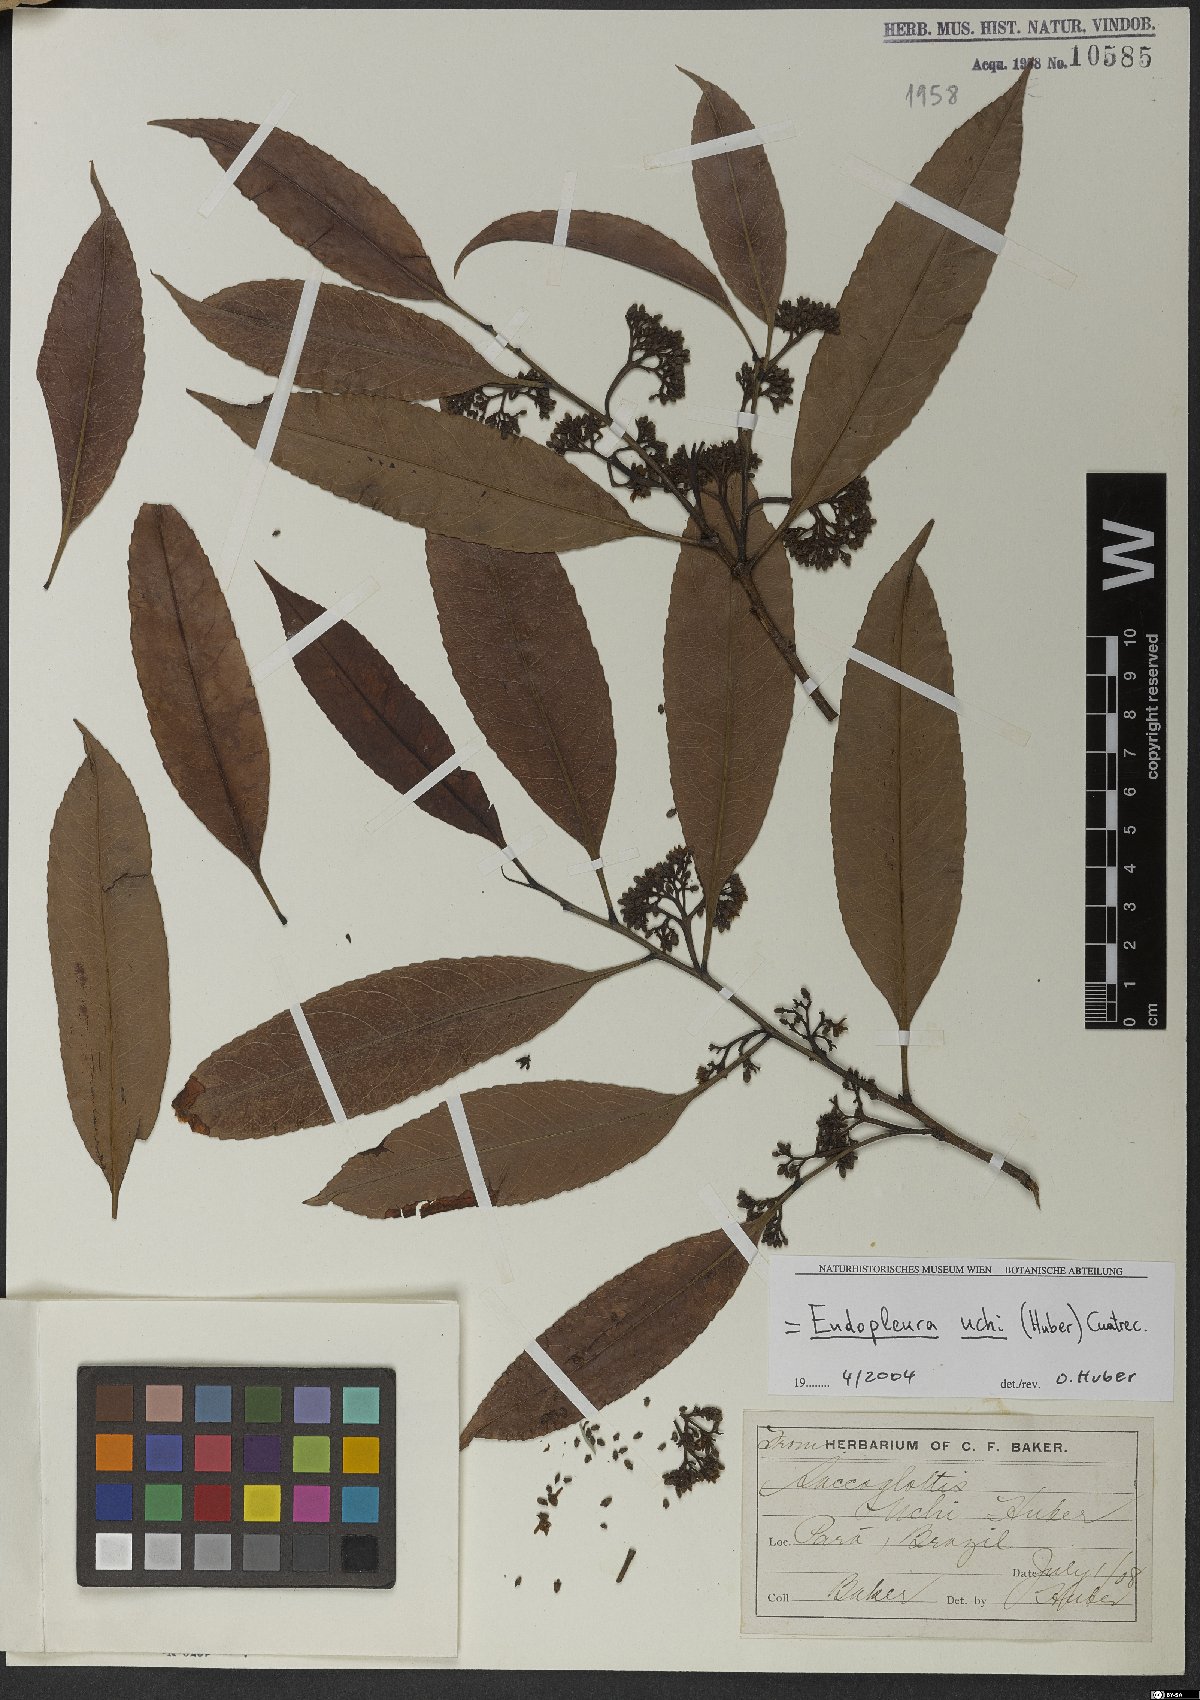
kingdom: Plantae
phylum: Tracheophyta
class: Magnoliopsida
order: Malpighiales
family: Humiriaceae
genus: Endopleura
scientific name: Endopleura uchi
